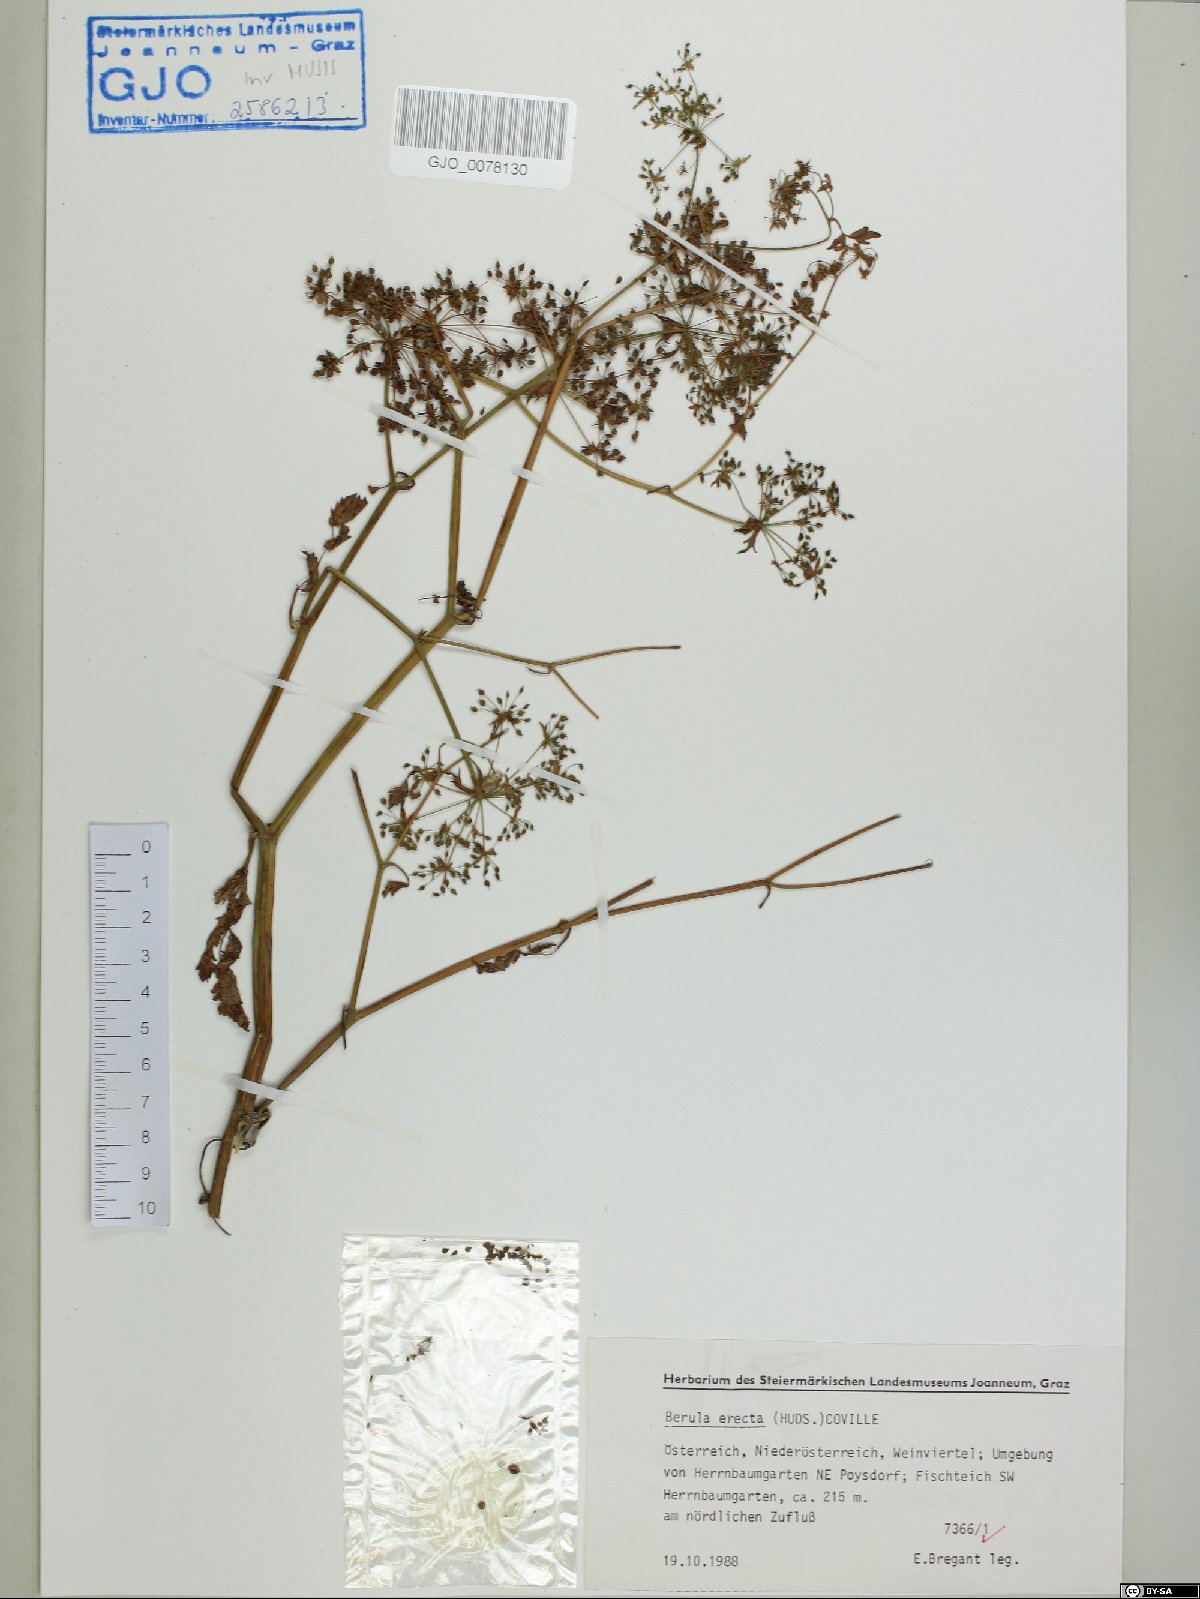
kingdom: Plantae
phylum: Tracheophyta
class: Magnoliopsida
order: Apiales
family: Apiaceae
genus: Berula
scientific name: Berula erecta
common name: Lesser water-parsnip
